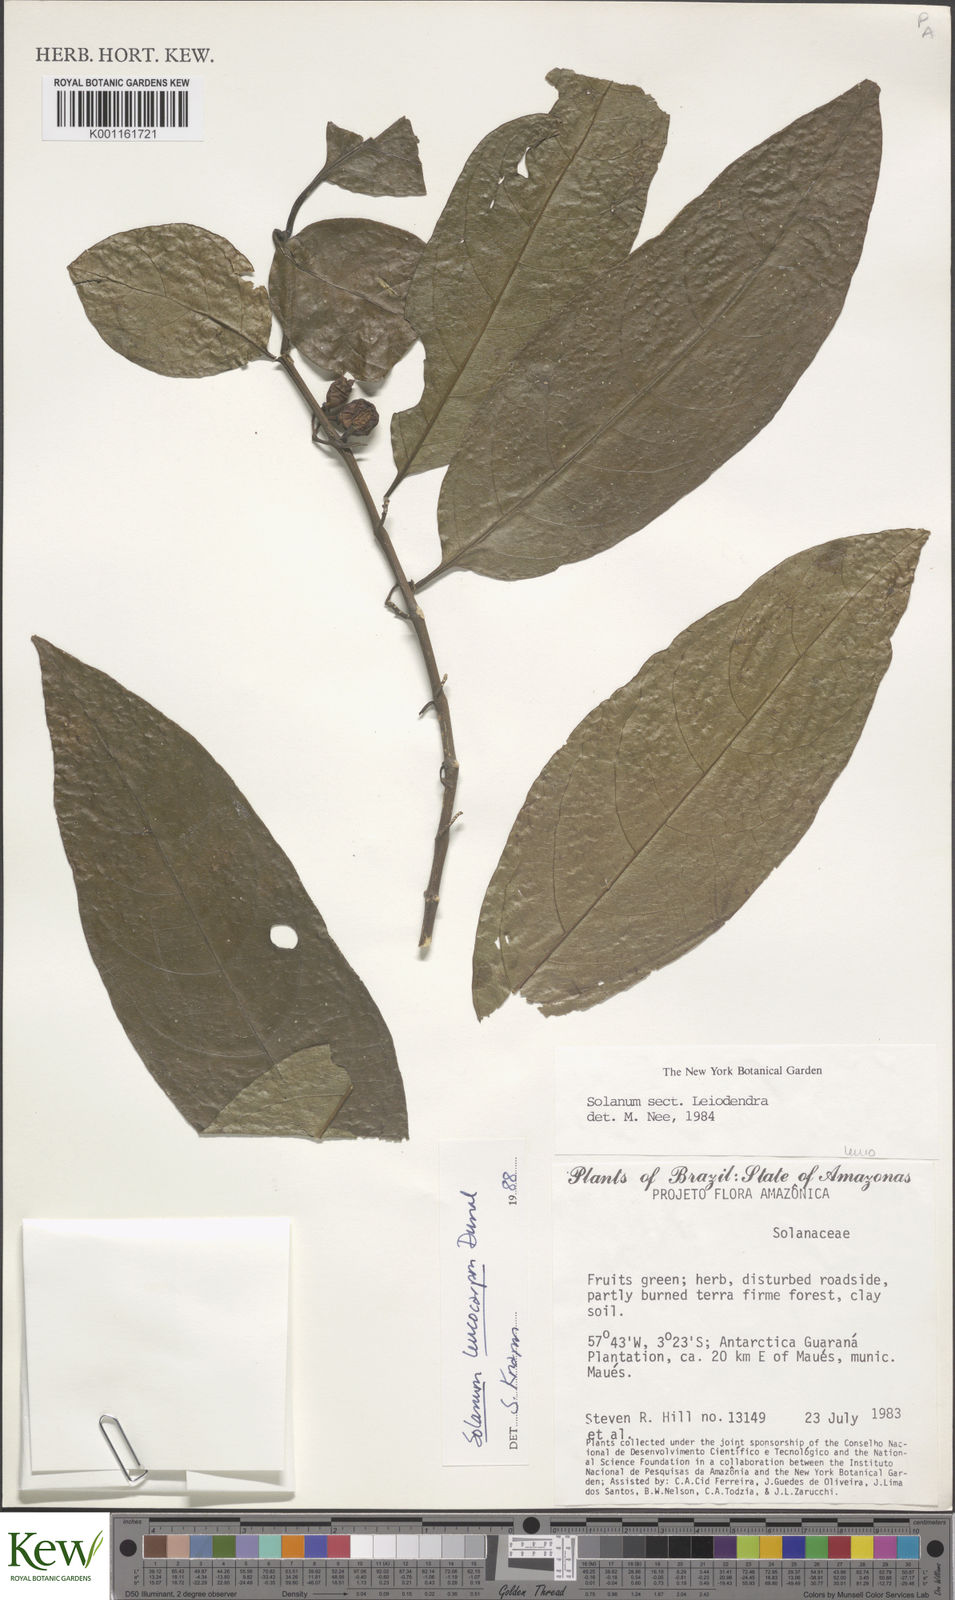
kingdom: Plantae
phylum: Tracheophyta
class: Magnoliopsida
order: Solanales
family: Solanaceae
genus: Solanum
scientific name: Solanum leucocarpon
